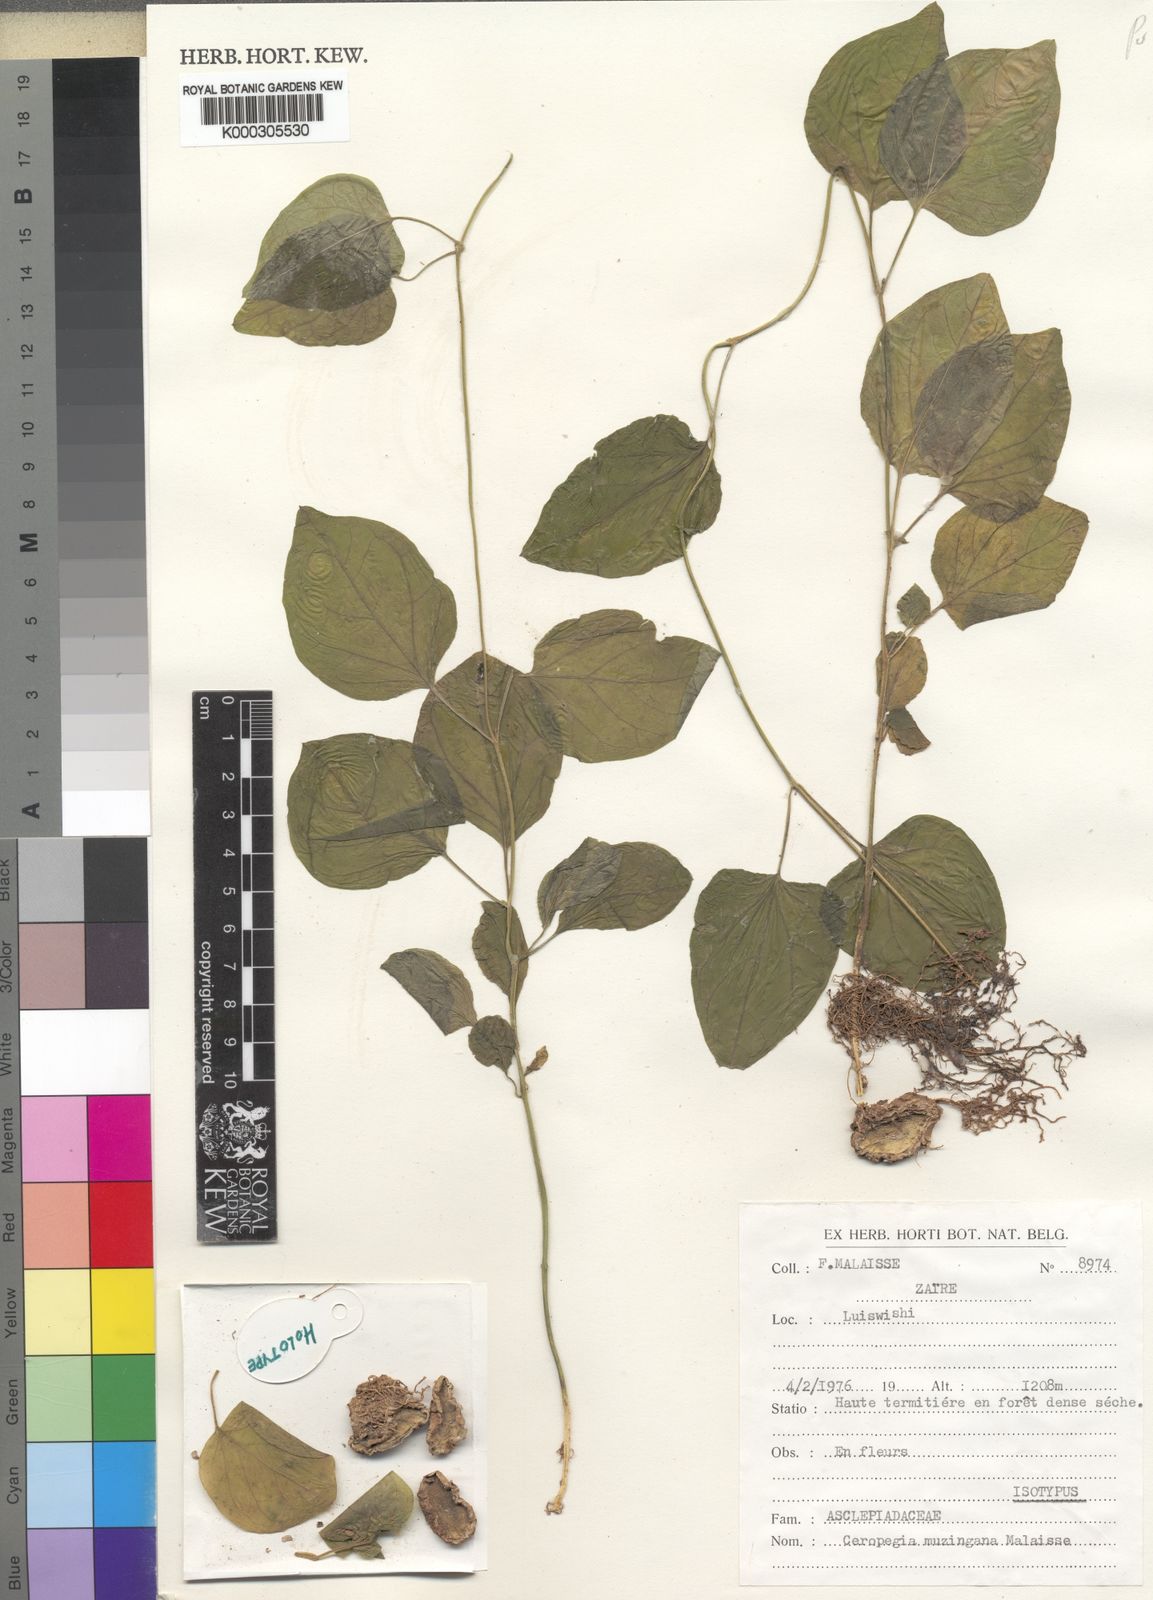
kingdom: Plantae
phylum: Tracheophyta
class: Magnoliopsida
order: Gentianales
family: Apocynaceae
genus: Ceropegia
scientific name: Ceropegia muzingana
